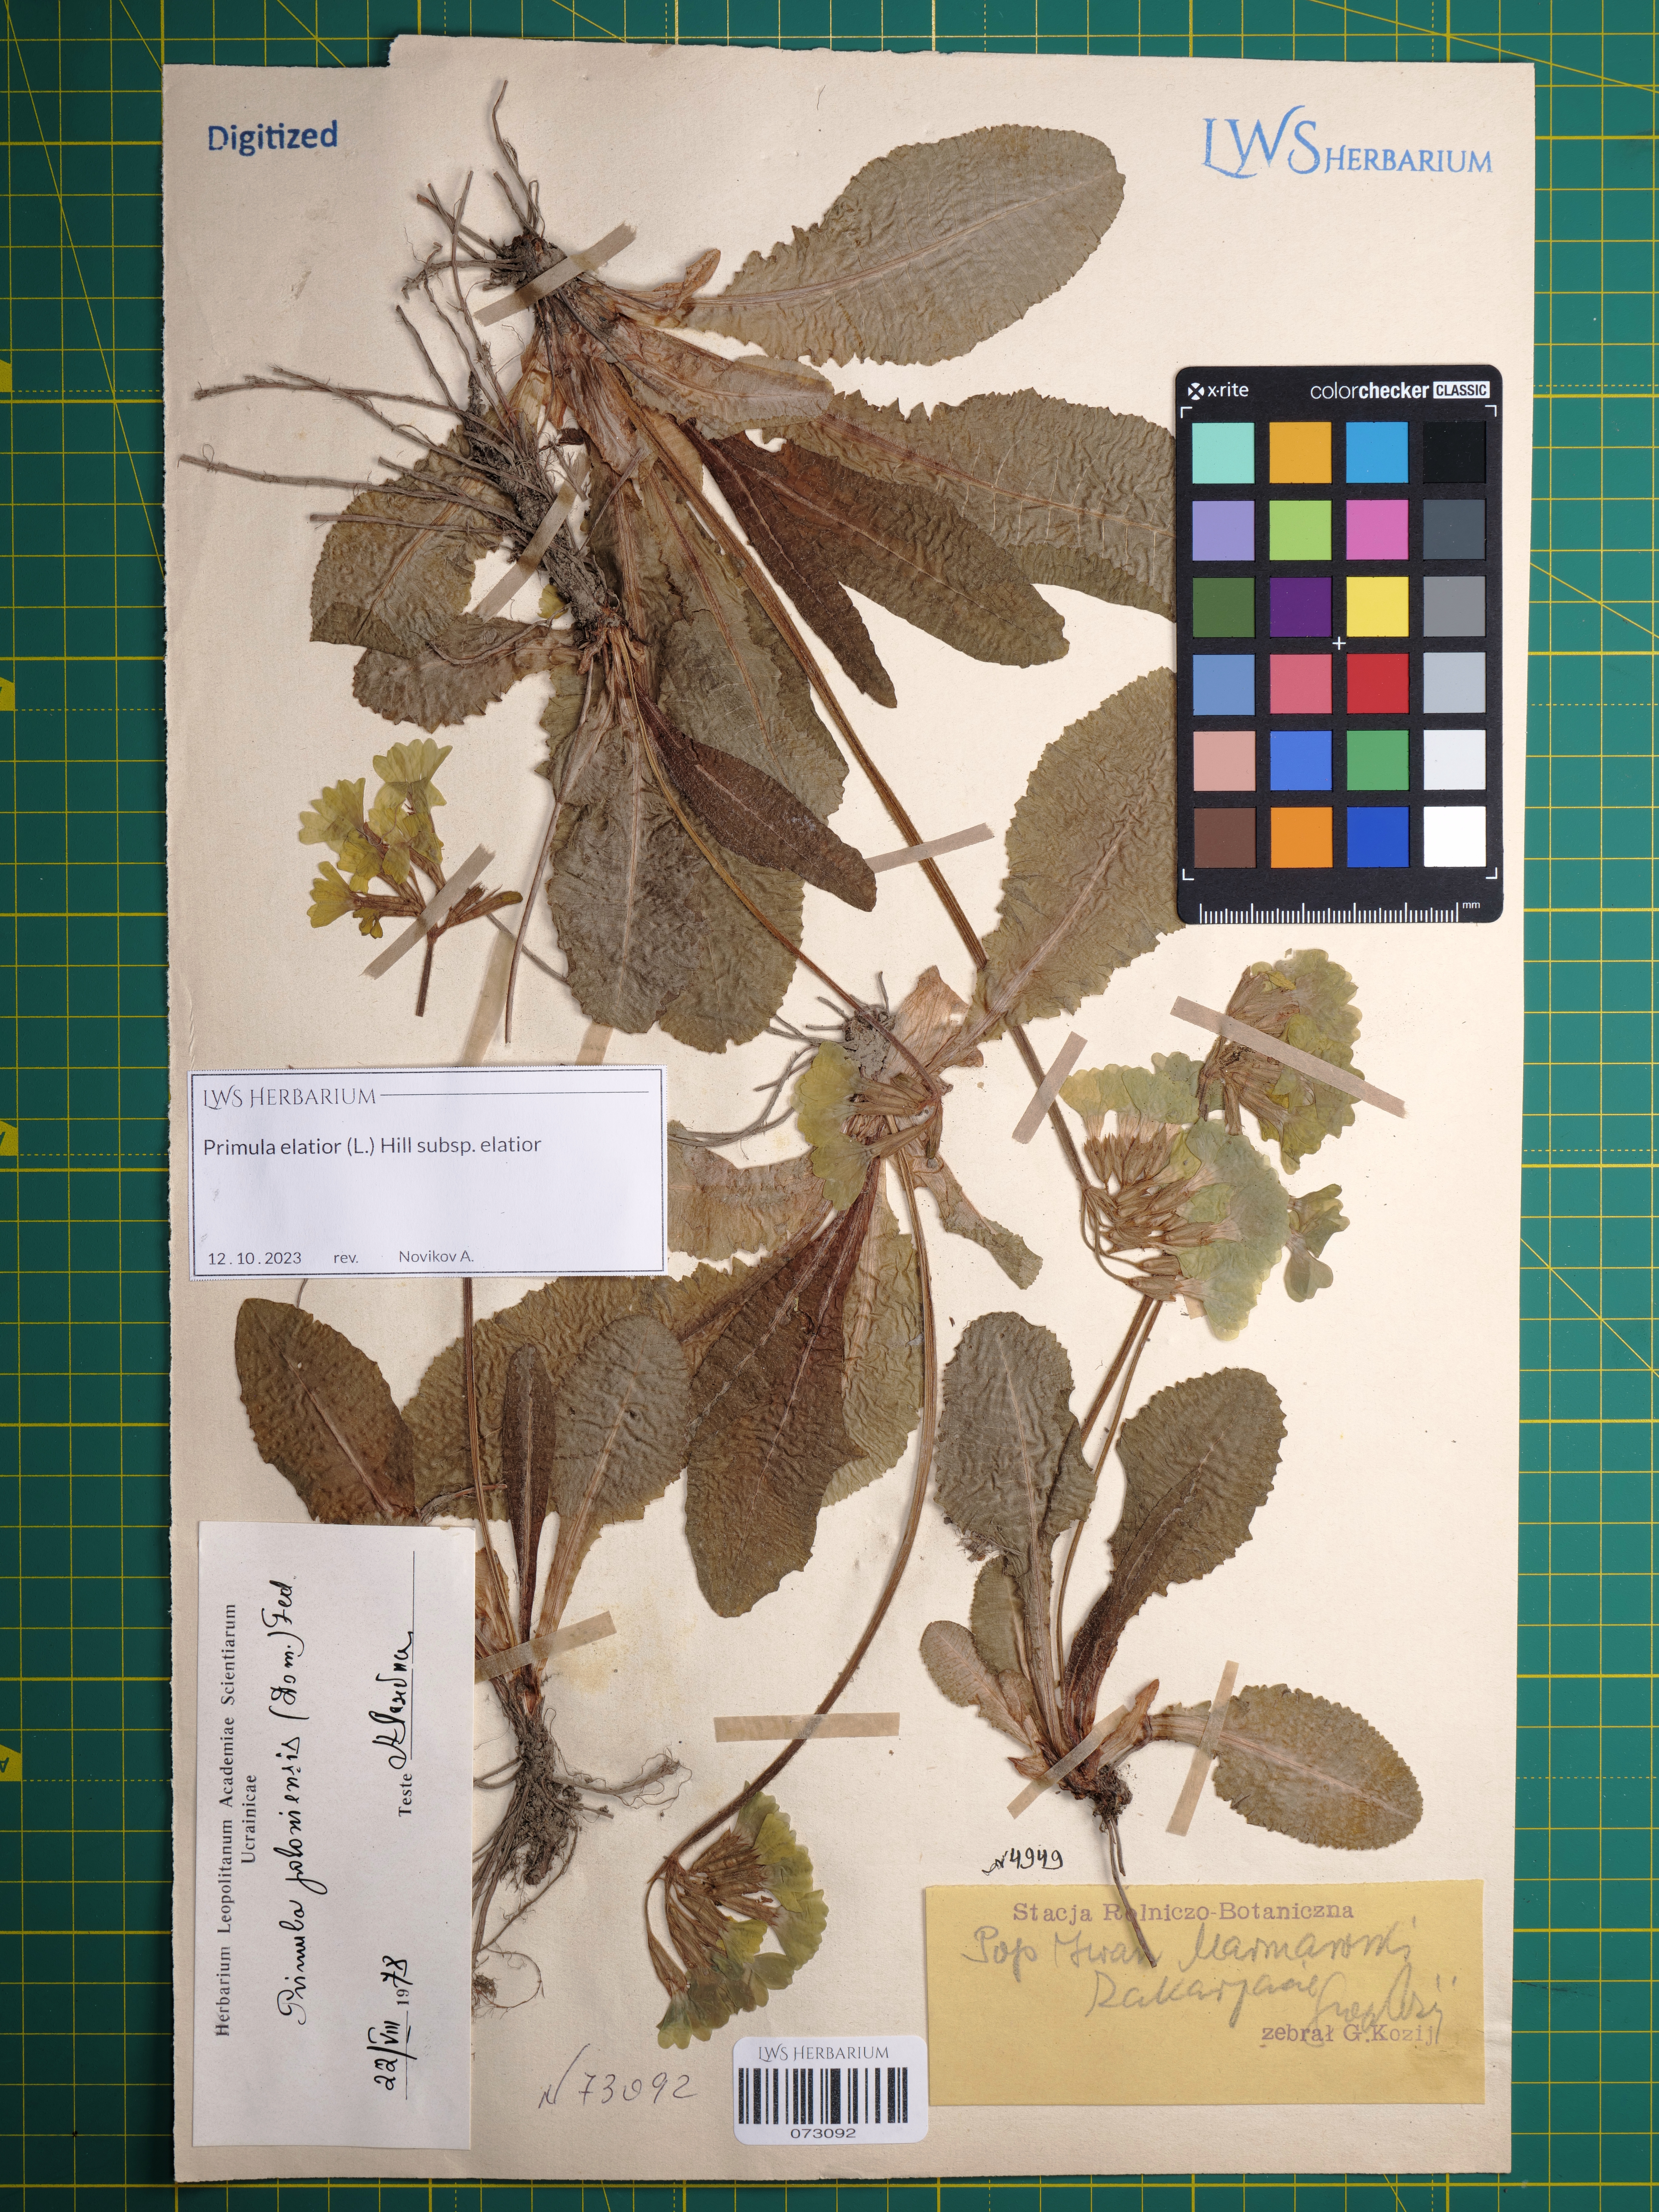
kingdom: Plantae
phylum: Tracheophyta
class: Magnoliopsida
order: Ericales
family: Primulaceae
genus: Primula
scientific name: Primula elatior
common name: Oxlip
